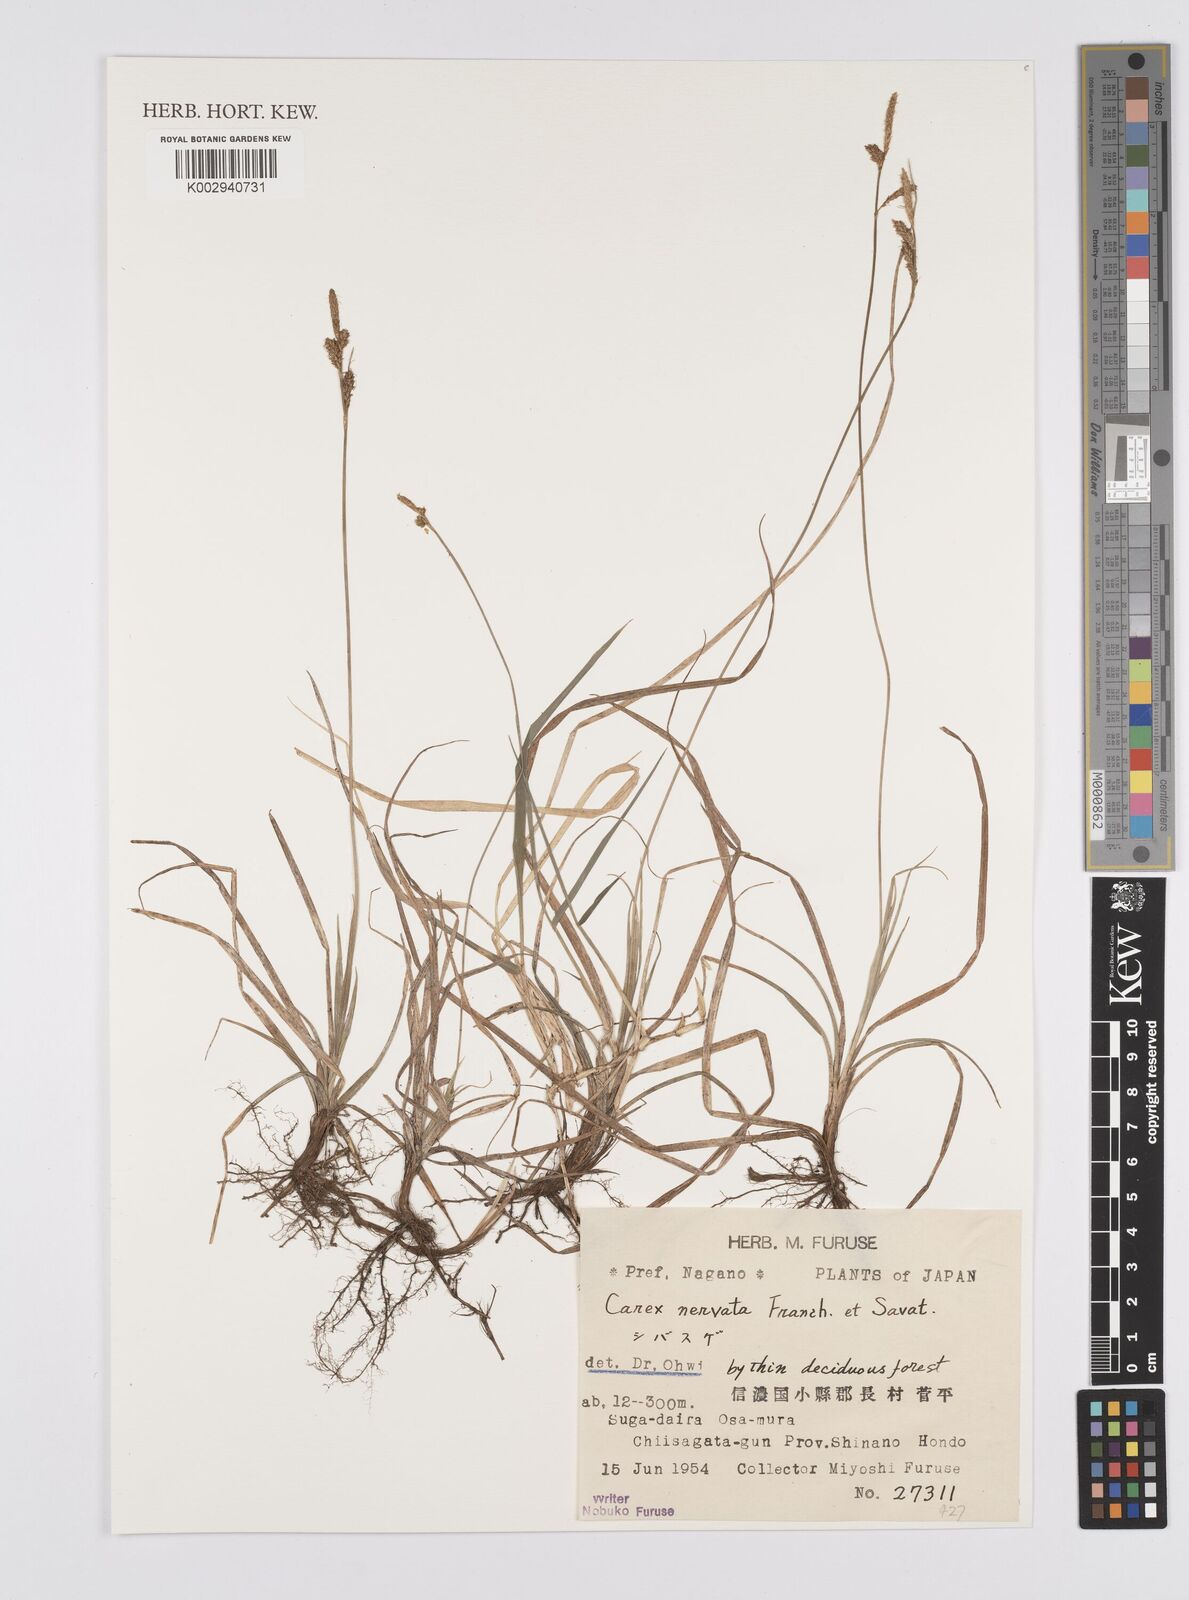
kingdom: Plantae
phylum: Tracheophyta
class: Liliopsida
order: Poales
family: Cyperaceae
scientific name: Cyperaceae
